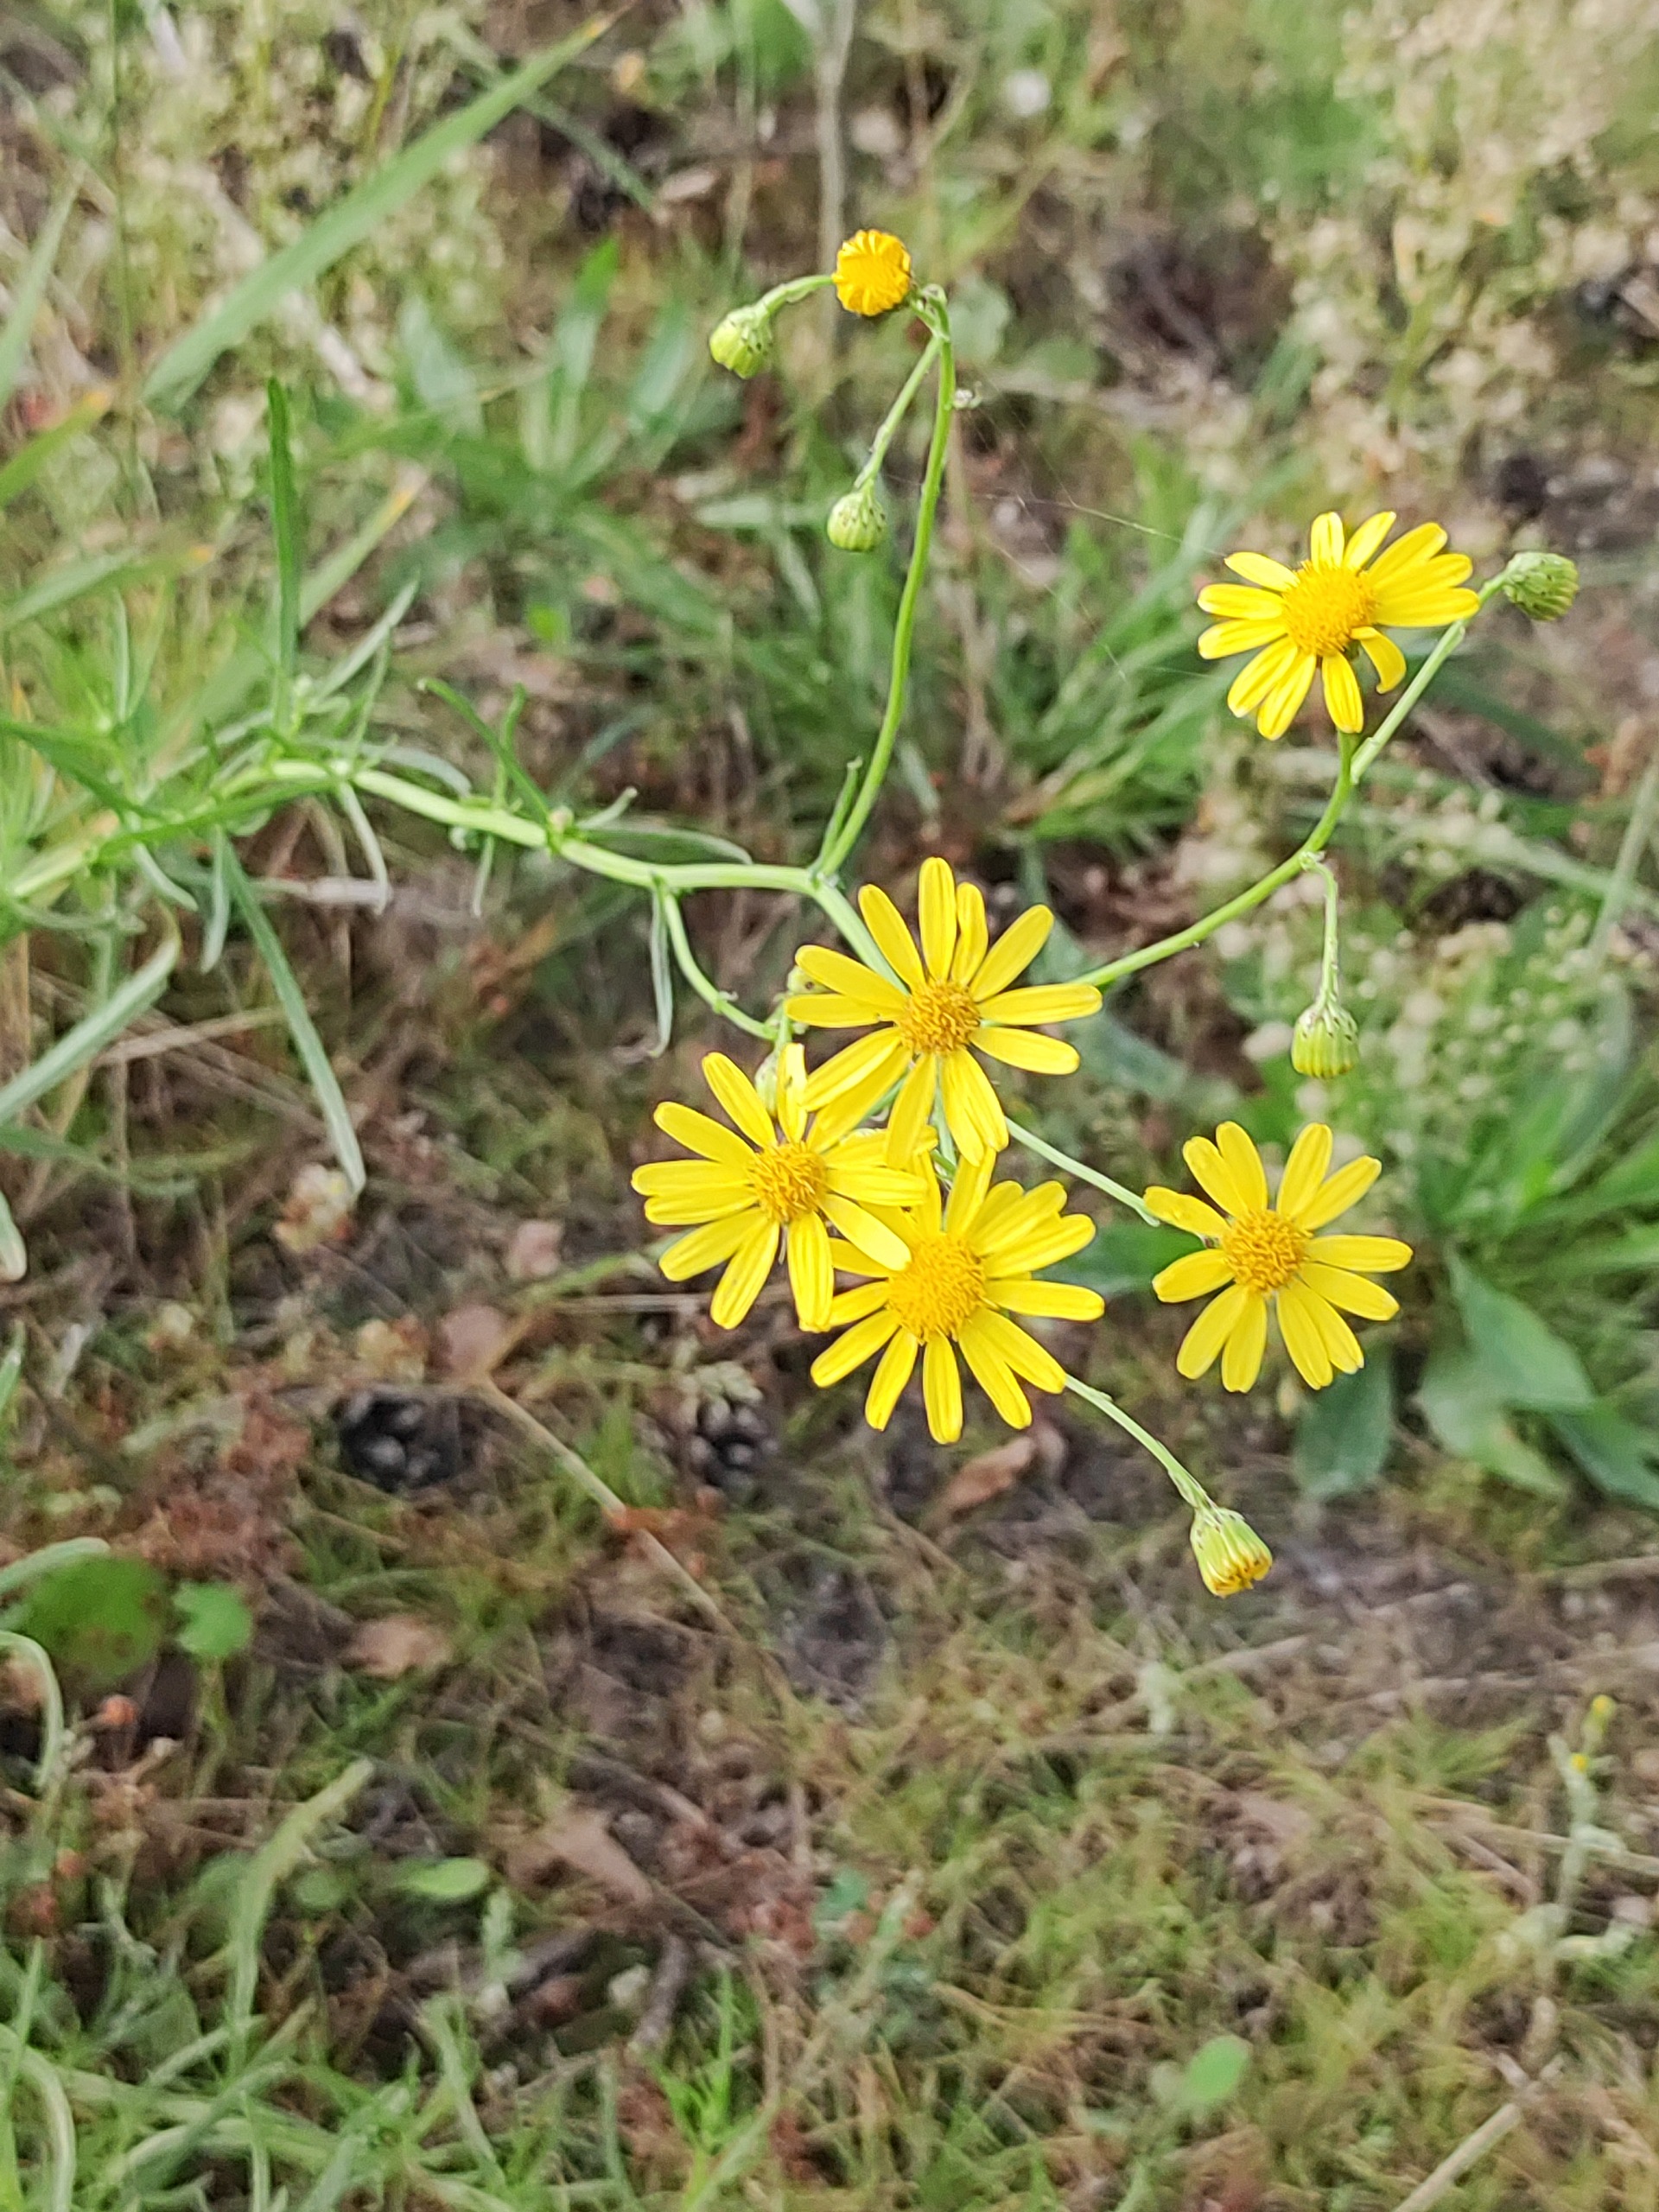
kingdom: Plantae
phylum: Tracheophyta
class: Magnoliopsida
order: Asterales
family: Asteraceae
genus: Senecio
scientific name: Senecio inaequidens
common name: Smalbladet brandbæger
